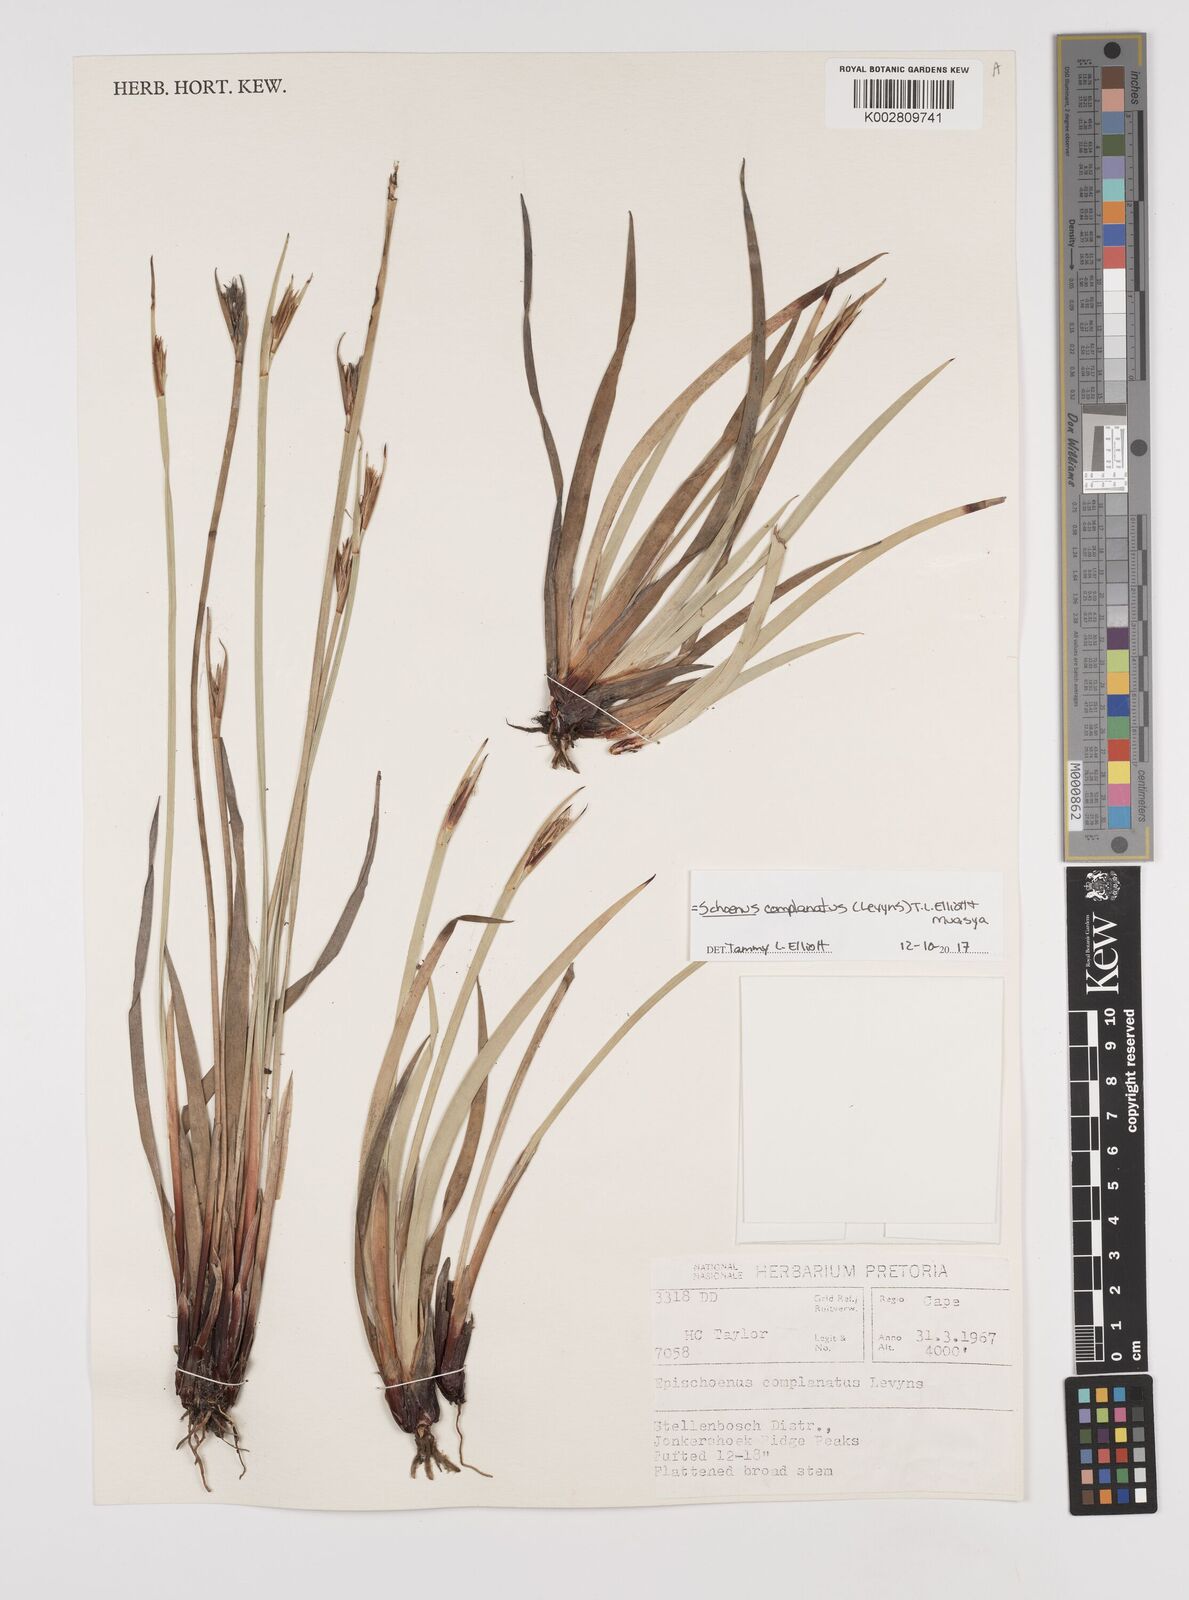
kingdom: Plantae
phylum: Tracheophyta
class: Liliopsida
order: Poales
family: Cyperaceae
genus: Blysmus
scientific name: Blysmus compressus
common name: Flat-sedge
